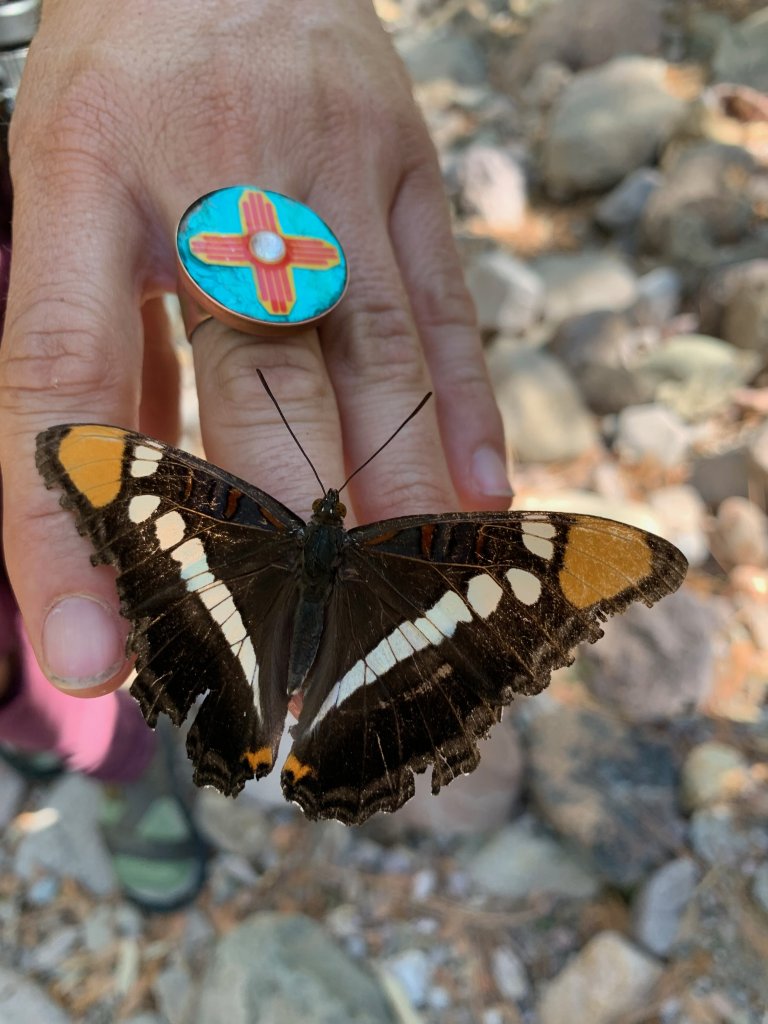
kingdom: Animalia
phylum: Arthropoda
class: Insecta
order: Lepidoptera
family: Nymphalidae
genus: Limenitis
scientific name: Limenitis bredowii
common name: Arizona Sister
